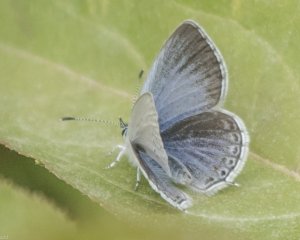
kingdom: Animalia
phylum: Arthropoda
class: Insecta
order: Lepidoptera
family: Lycaenidae
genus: Elkalyce
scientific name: Elkalyce amyntula
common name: Western Tailed-Blue
